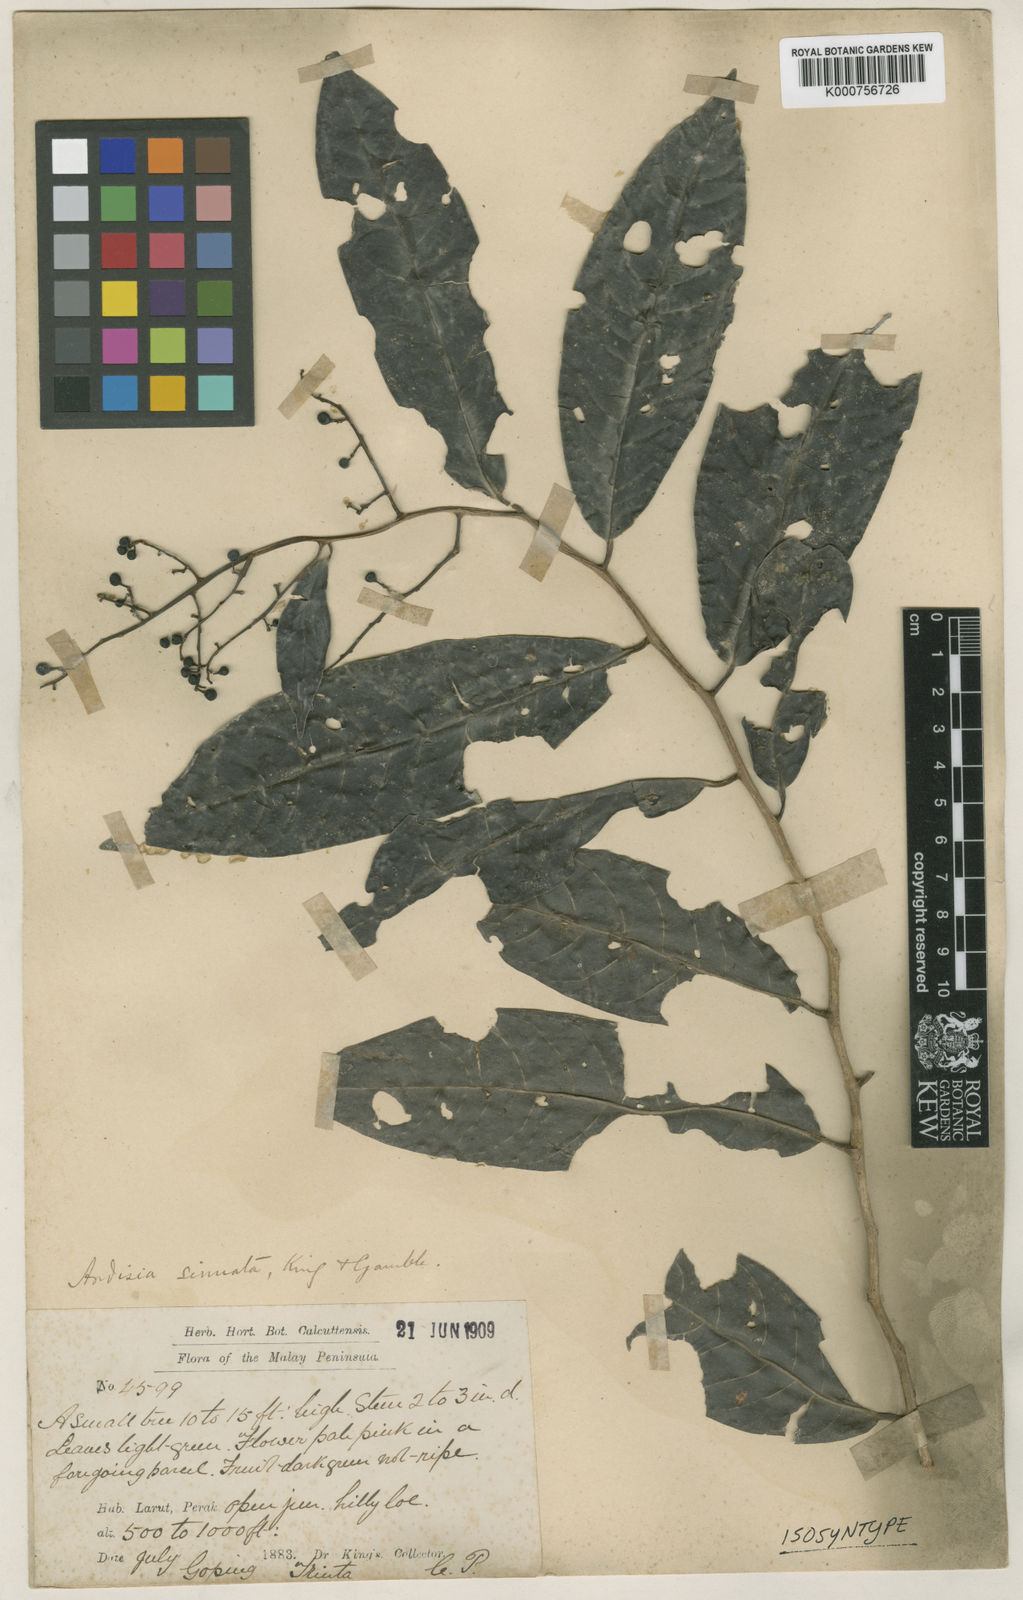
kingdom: Plantae
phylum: Tracheophyta
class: Magnoliopsida
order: Ericales
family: Primulaceae
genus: Ardisia
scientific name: Ardisia sinuata
